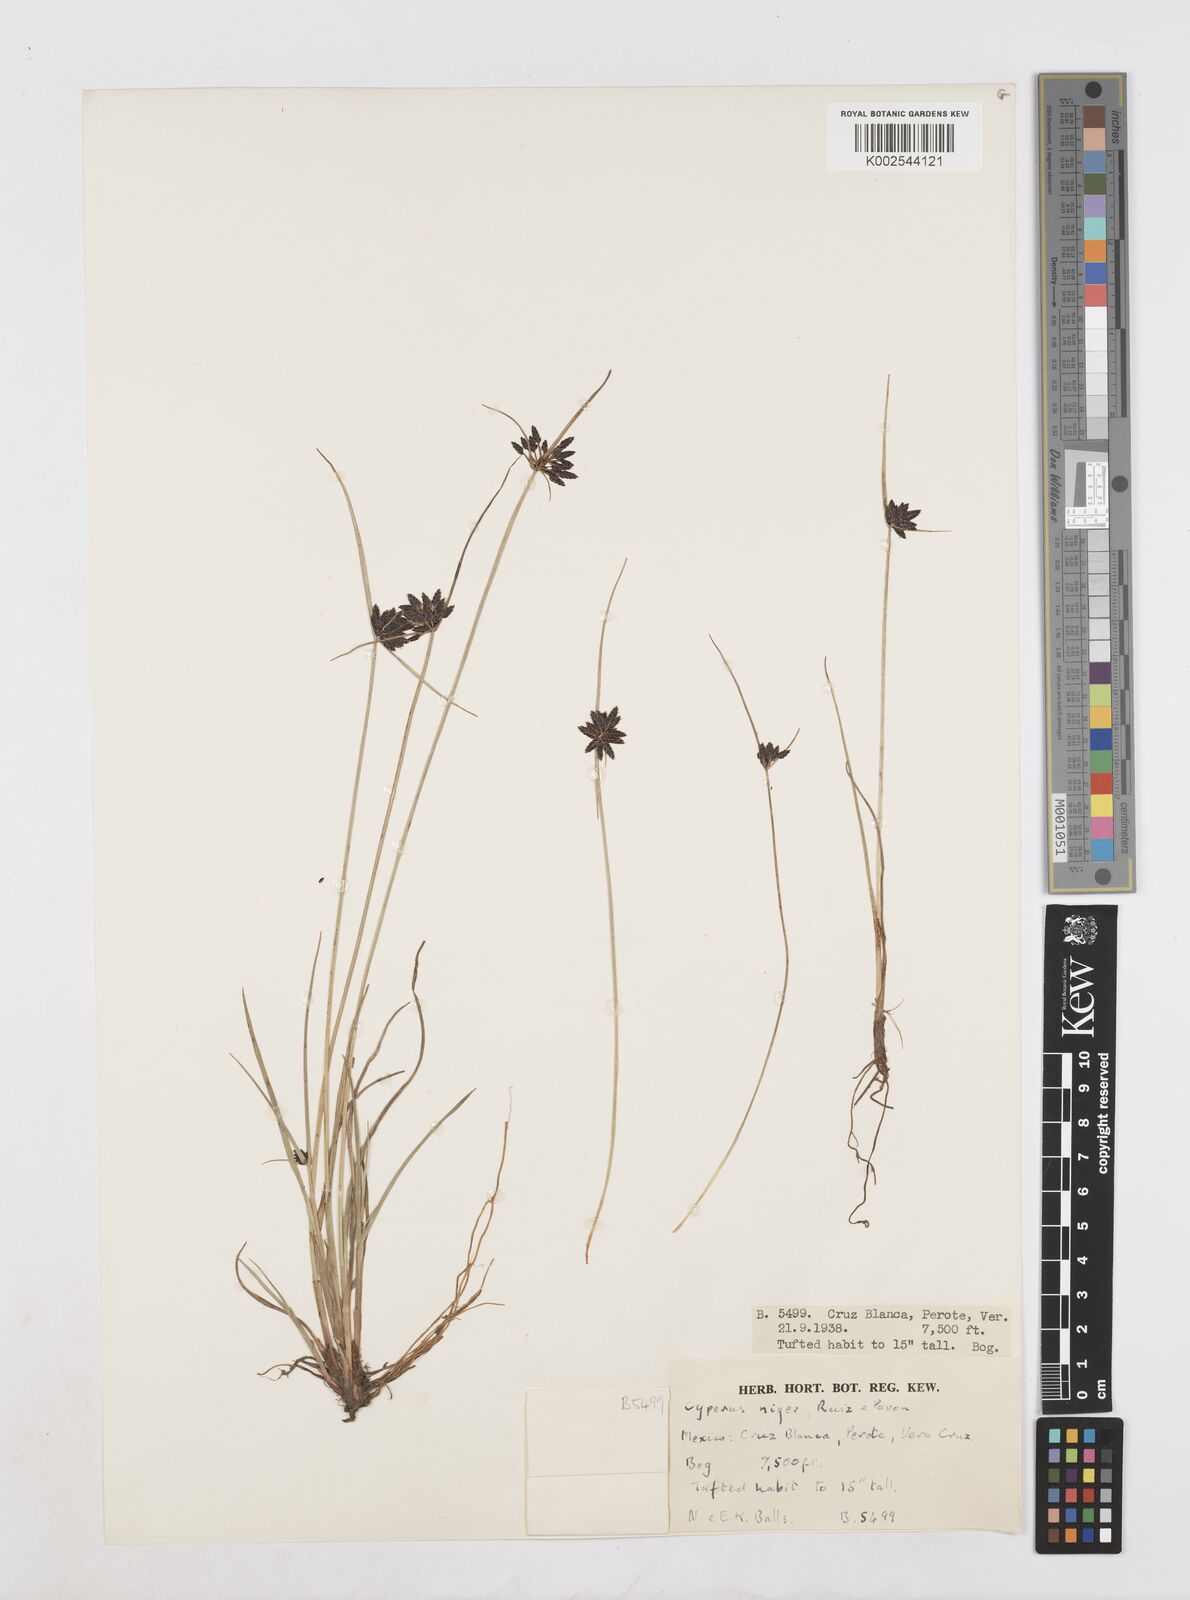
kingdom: Plantae
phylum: Tracheophyta
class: Liliopsida
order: Poales
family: Cyperaceae
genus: Cyperus
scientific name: Cyperus melanostachyus
